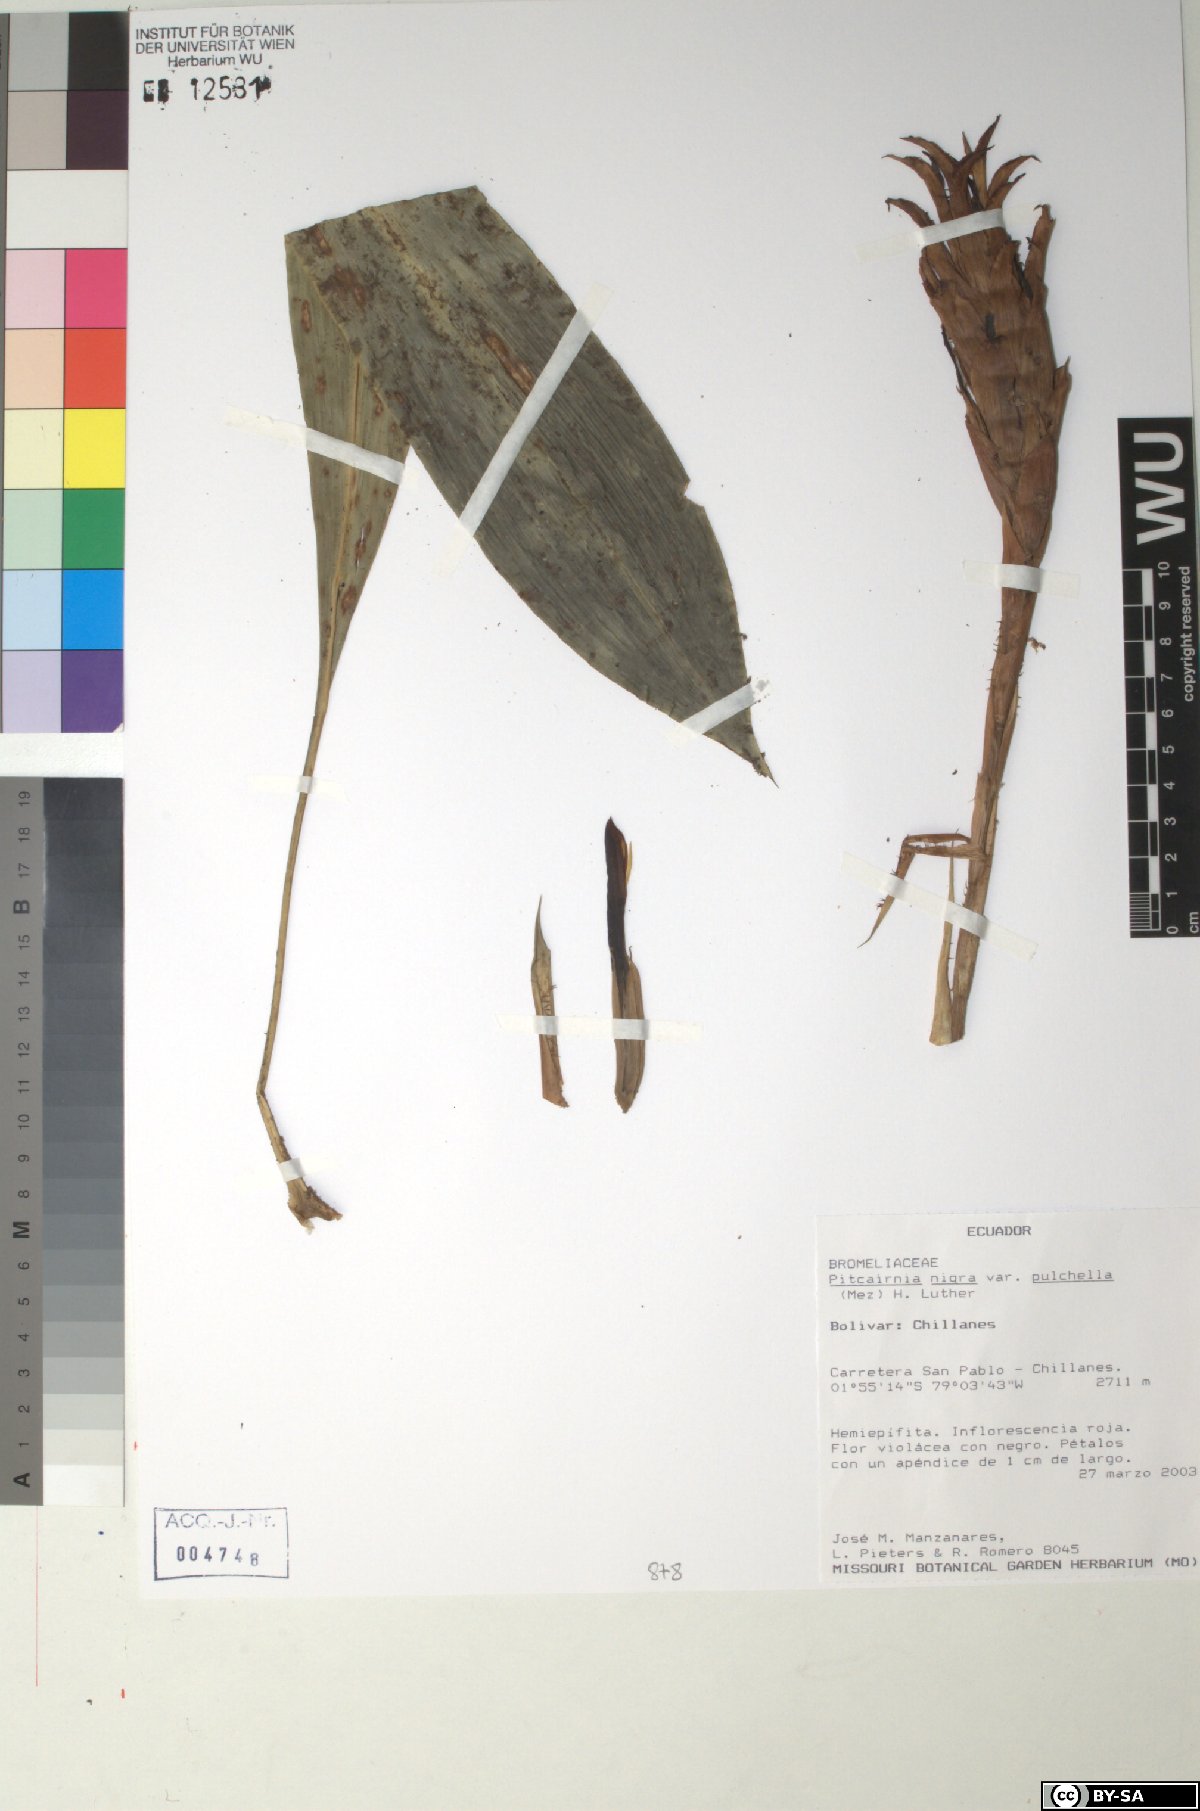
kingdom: Plantae
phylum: Tracheophyta
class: Liliopsida
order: Poales
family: Bromeliaceae
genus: Pitcairnia
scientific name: Pitcairnia nigra
